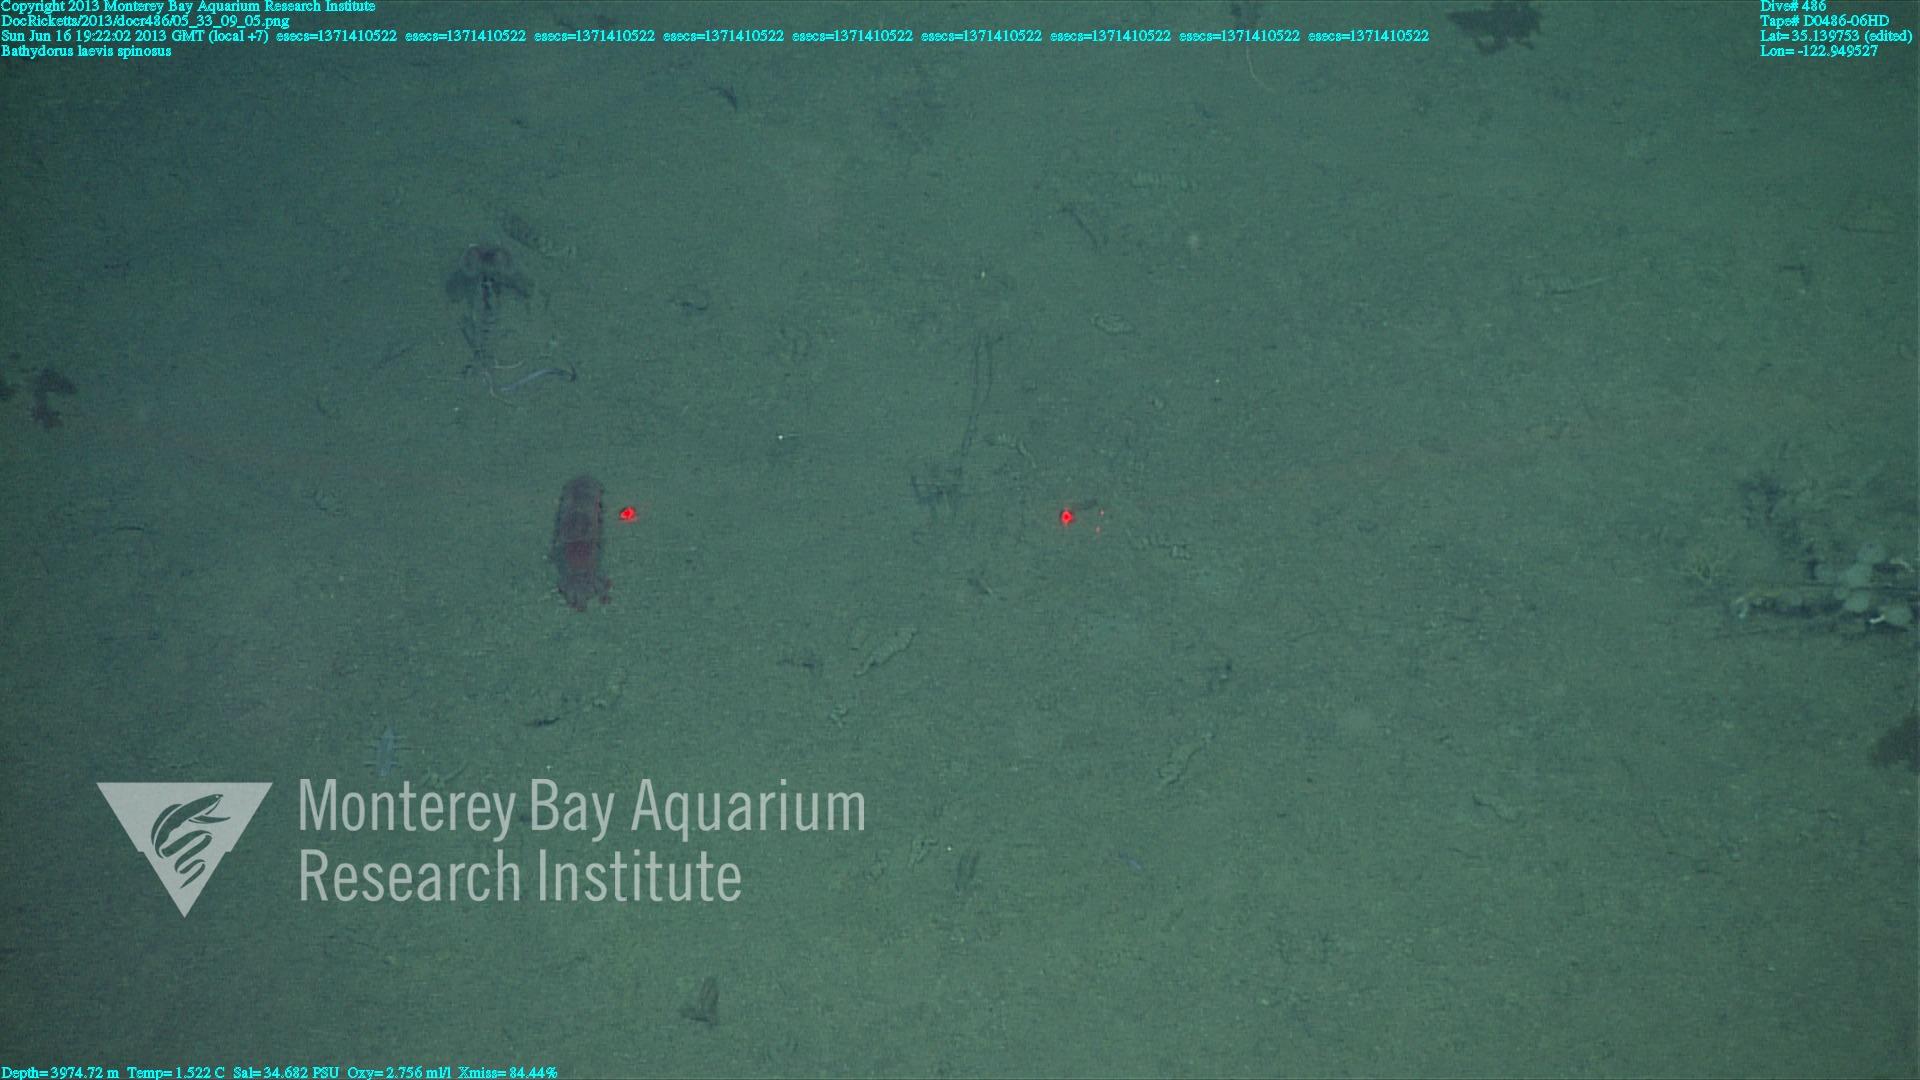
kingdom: Animalia
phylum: Porifera
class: Hexactinellida
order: Lyssacinosida
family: Rossellidae
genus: Bathydorus
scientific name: Bathydorus spinosus
